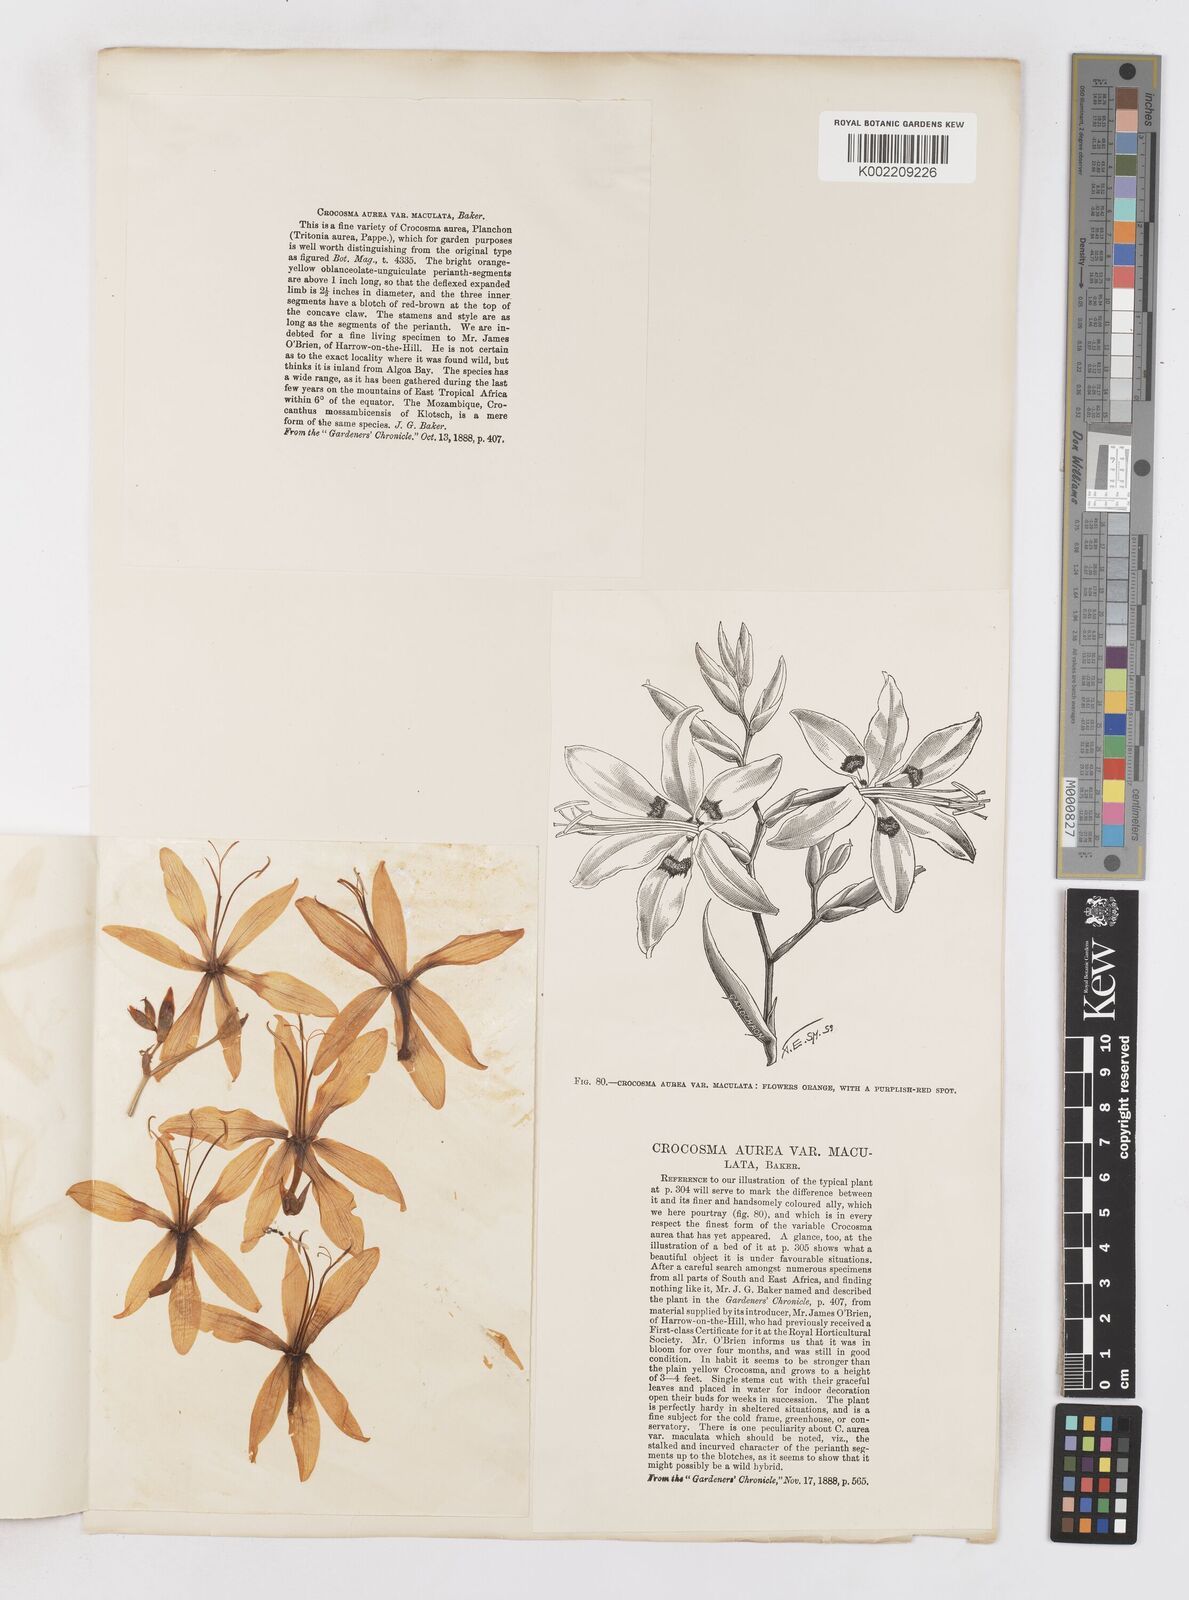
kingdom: Plantae
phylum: Tracheophyta
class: Liliopsida
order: Asparagales
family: Iridaceae
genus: Crocosmia
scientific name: Crocosmia aurea
